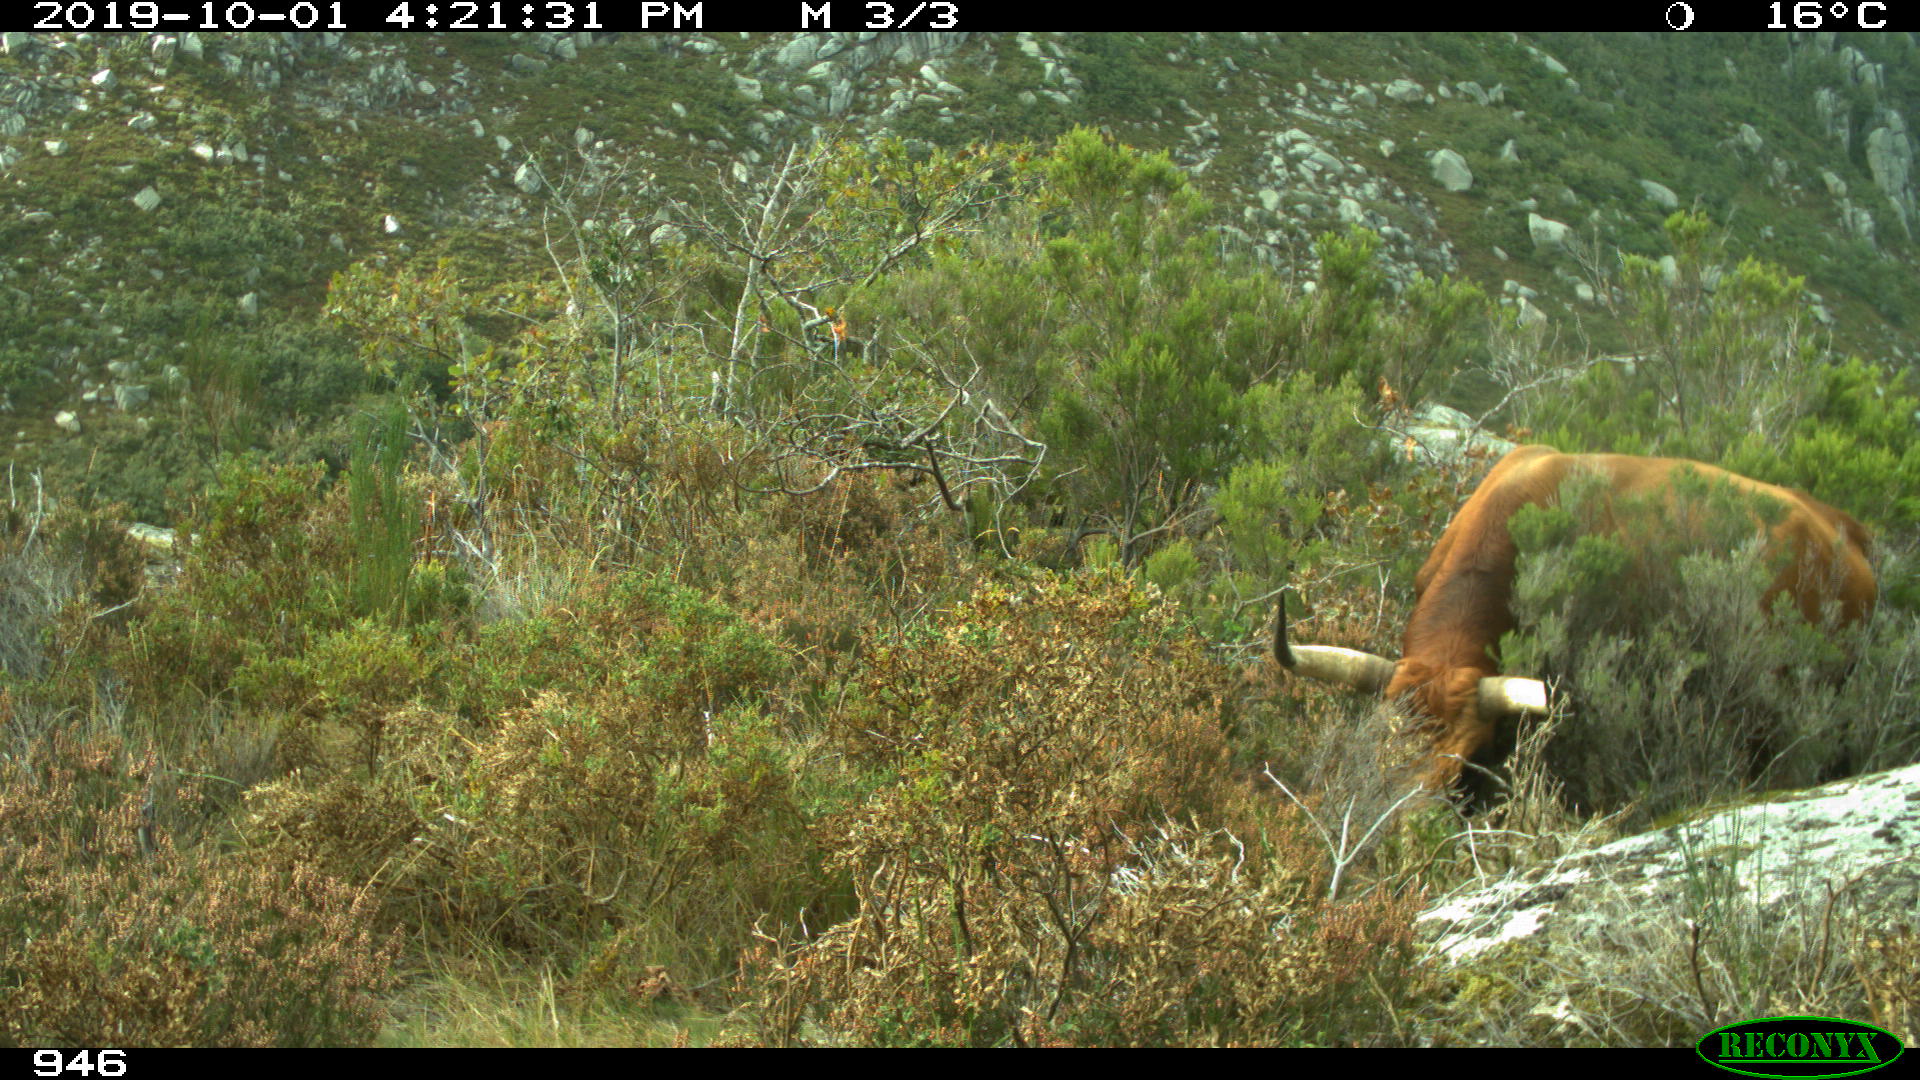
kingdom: Animalia
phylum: Chordata
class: Mammalia
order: Artiodactyla
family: Bovidae
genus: Bos
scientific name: Bos taurus
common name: Domesticated cattle
